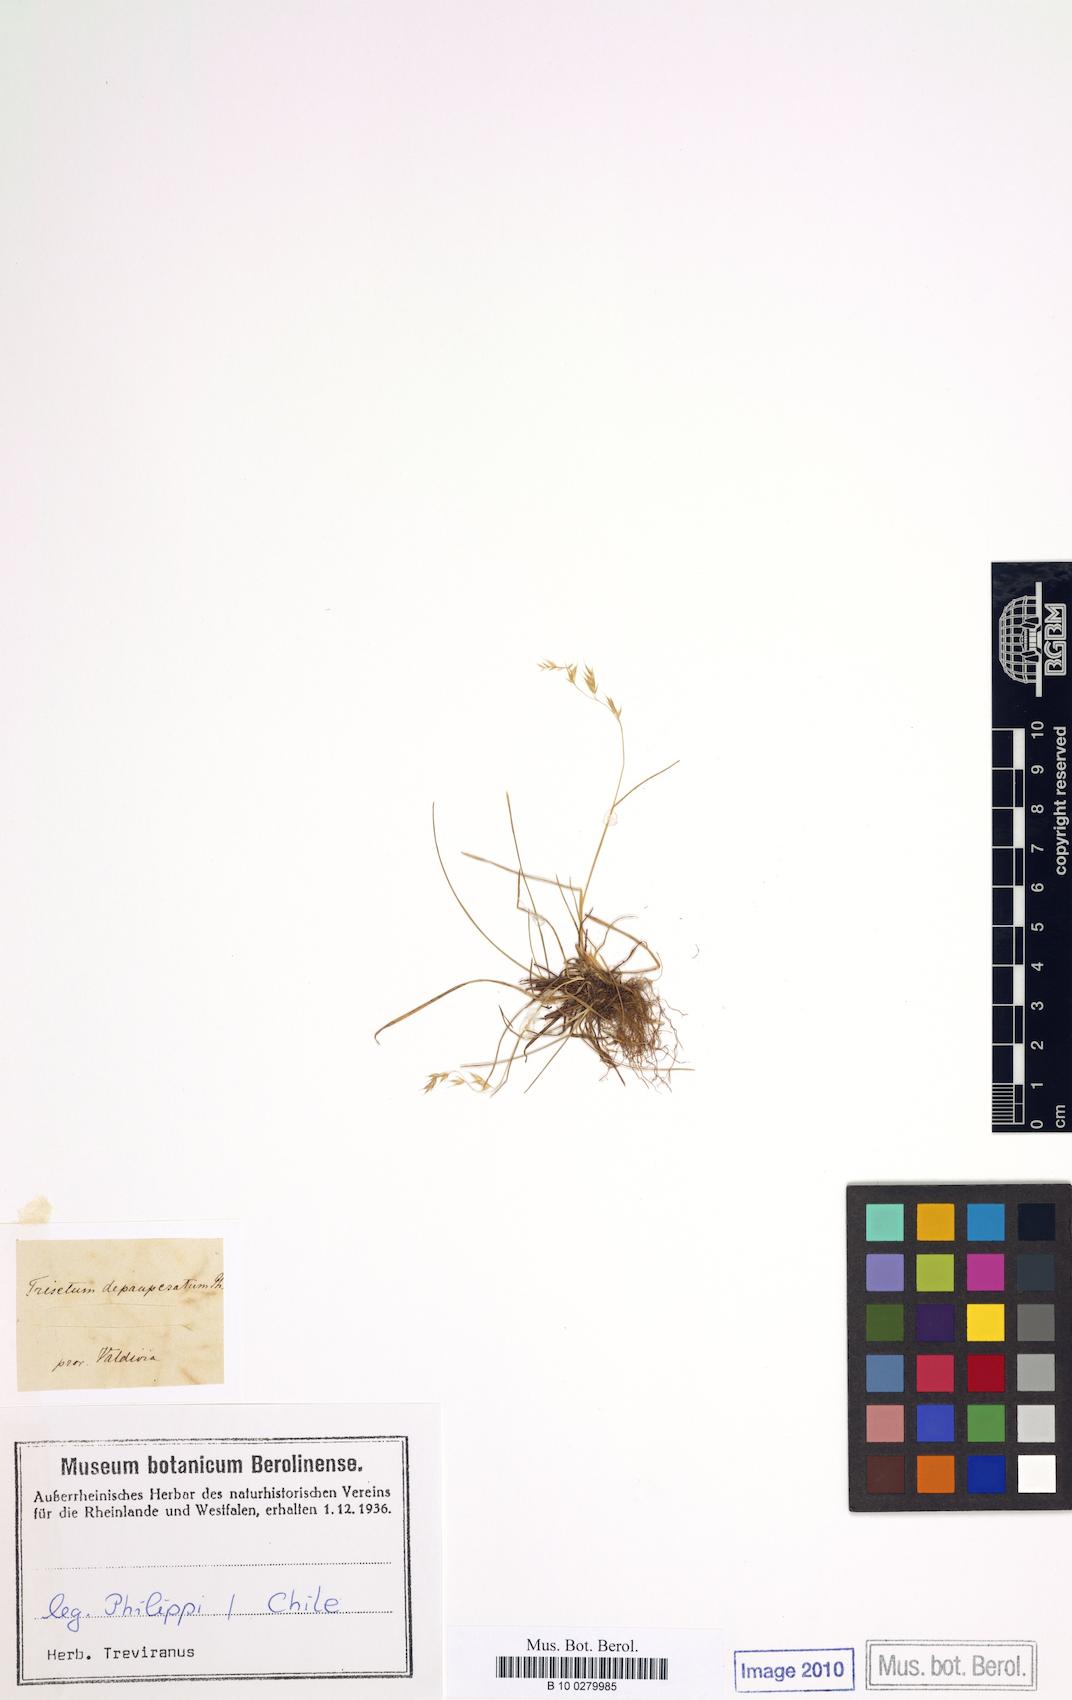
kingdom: Plantae
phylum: Tracheophyta
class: Liliopsida
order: Poales
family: Poaceae
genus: Cinnagrostis
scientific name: Cinnagrostis micrathera
